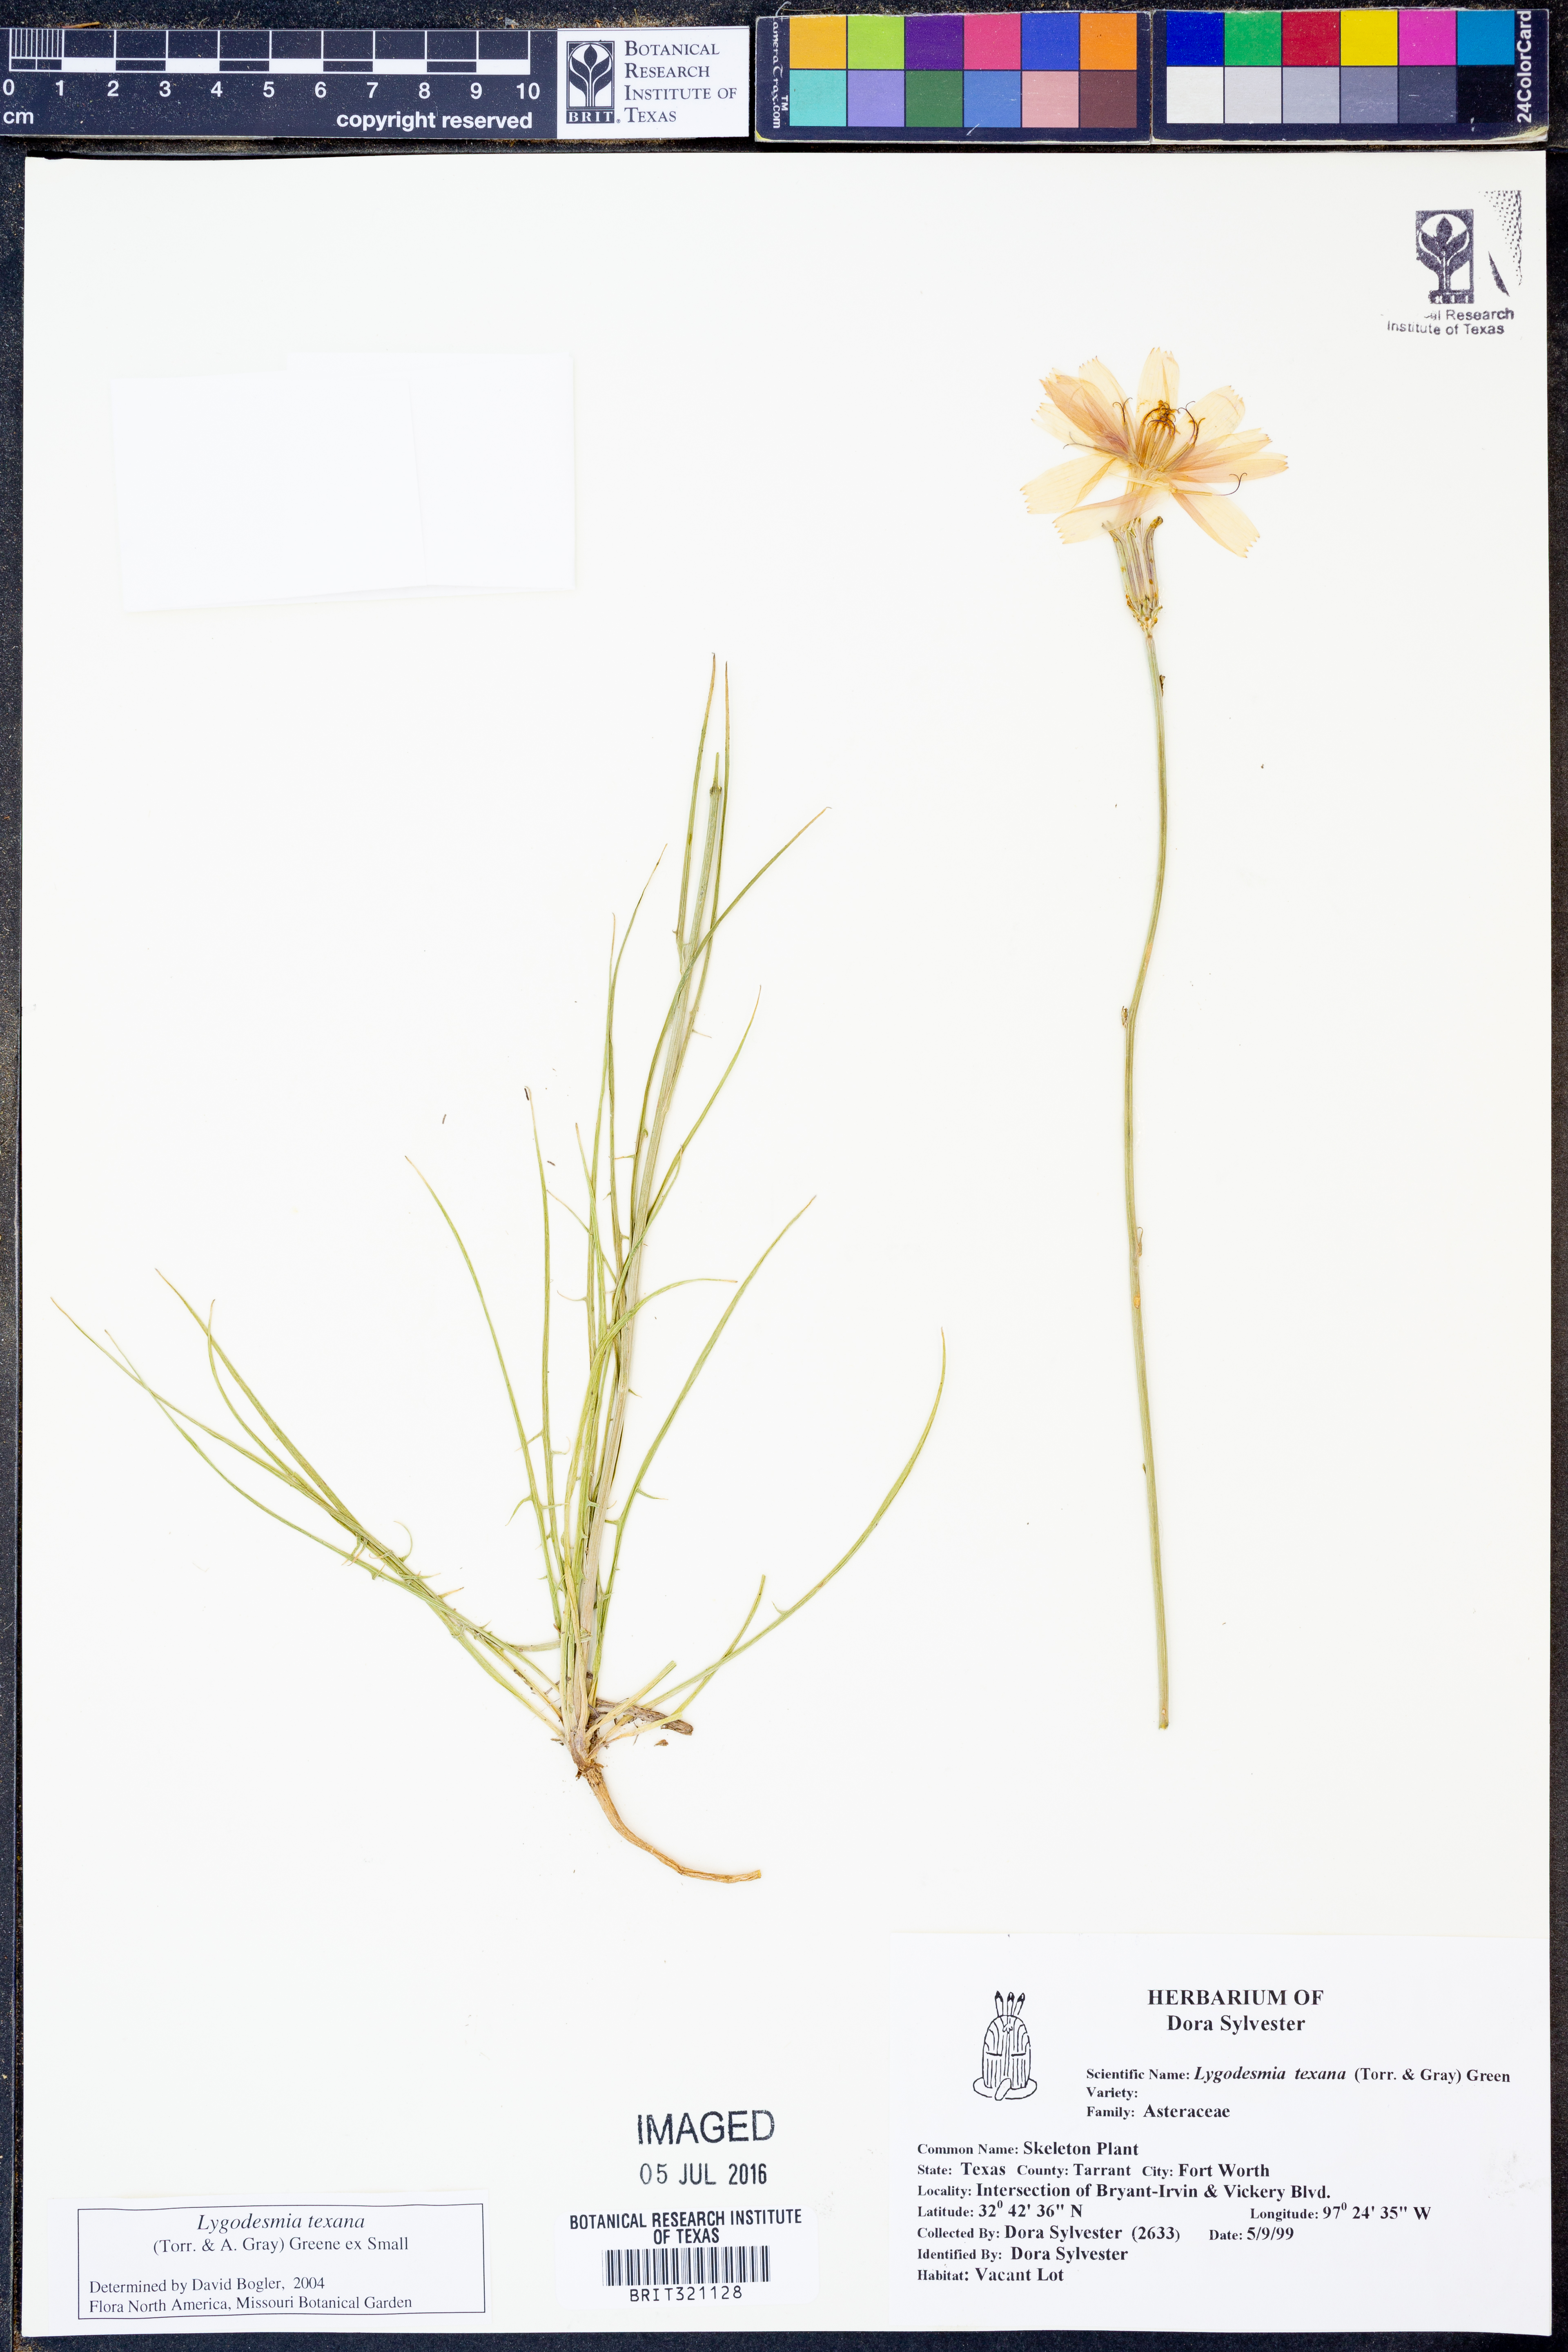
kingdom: Plantae
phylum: Tracheophyta
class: Magnoliopsida
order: Asterales
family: Asteraceae
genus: Lygodesmia
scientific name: Lygodesmia texana
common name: Texas skeleton-plant
